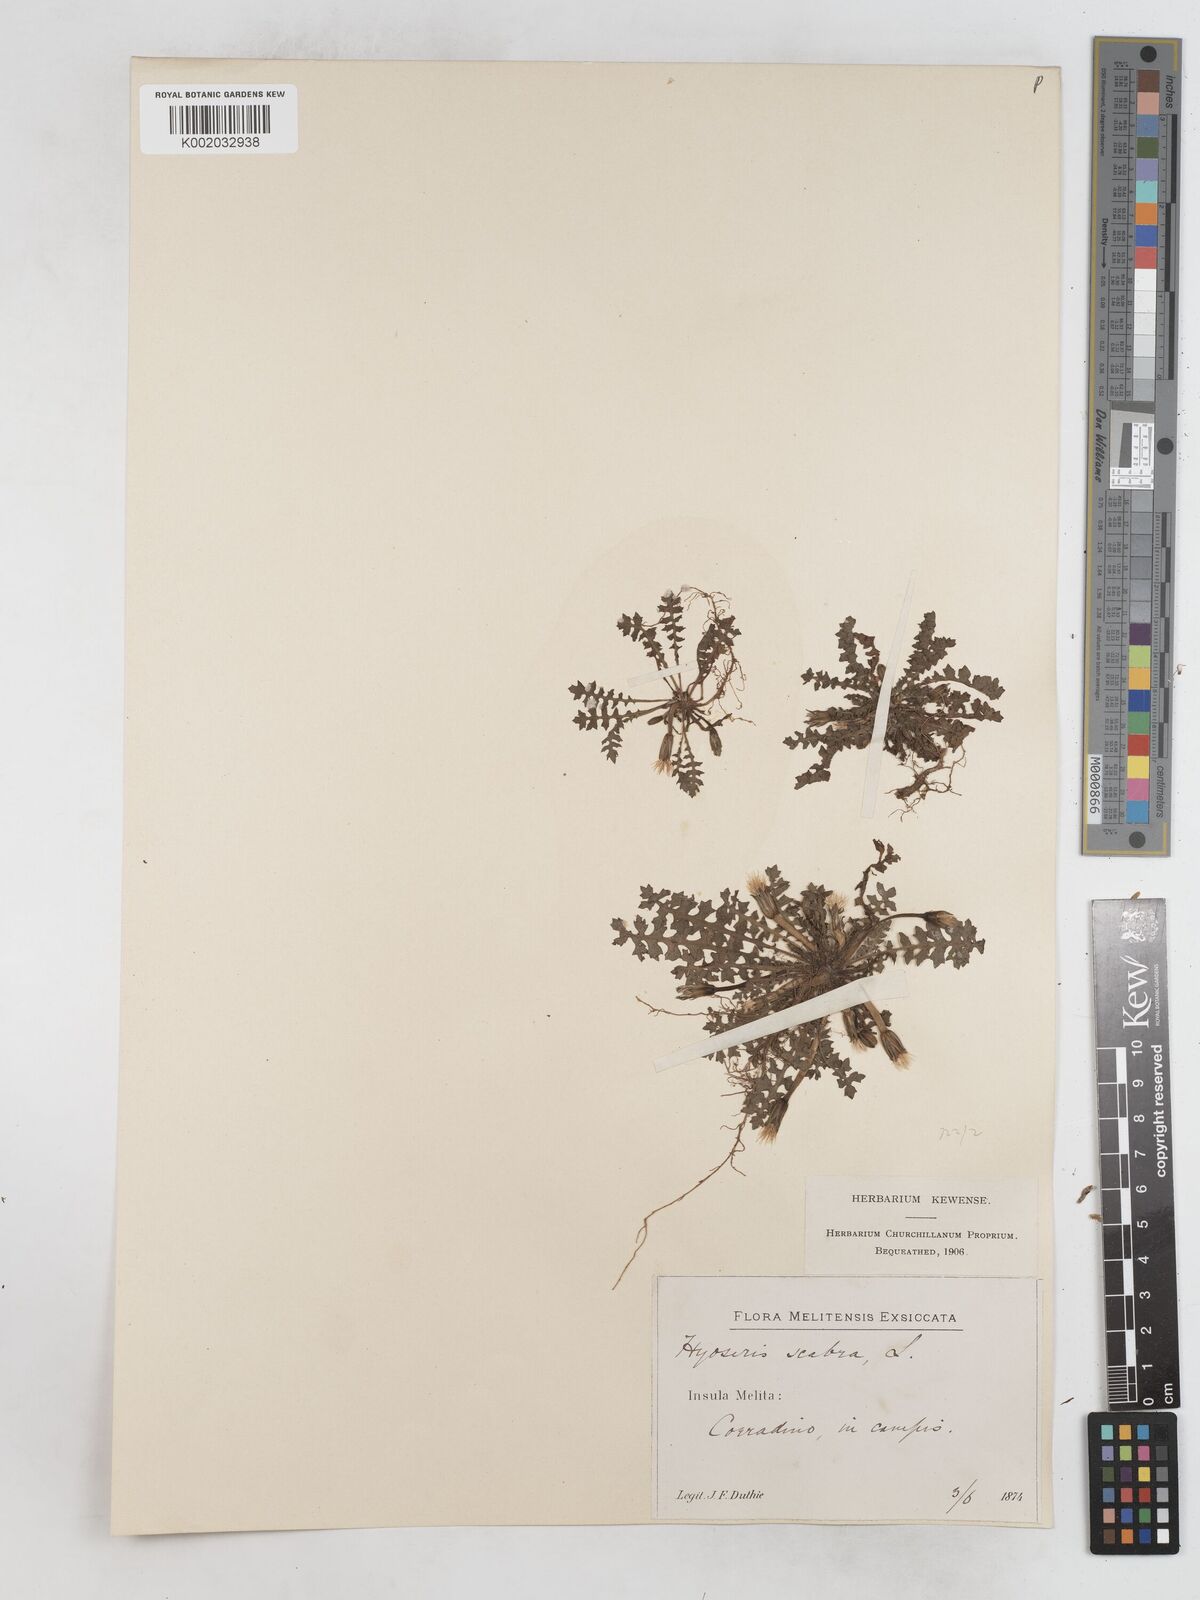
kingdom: Plantae
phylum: Tracheophyta
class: Magnoliopsida
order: Asterales
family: Asteraceae
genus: Hyoseris
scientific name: Hyoseris scabra
